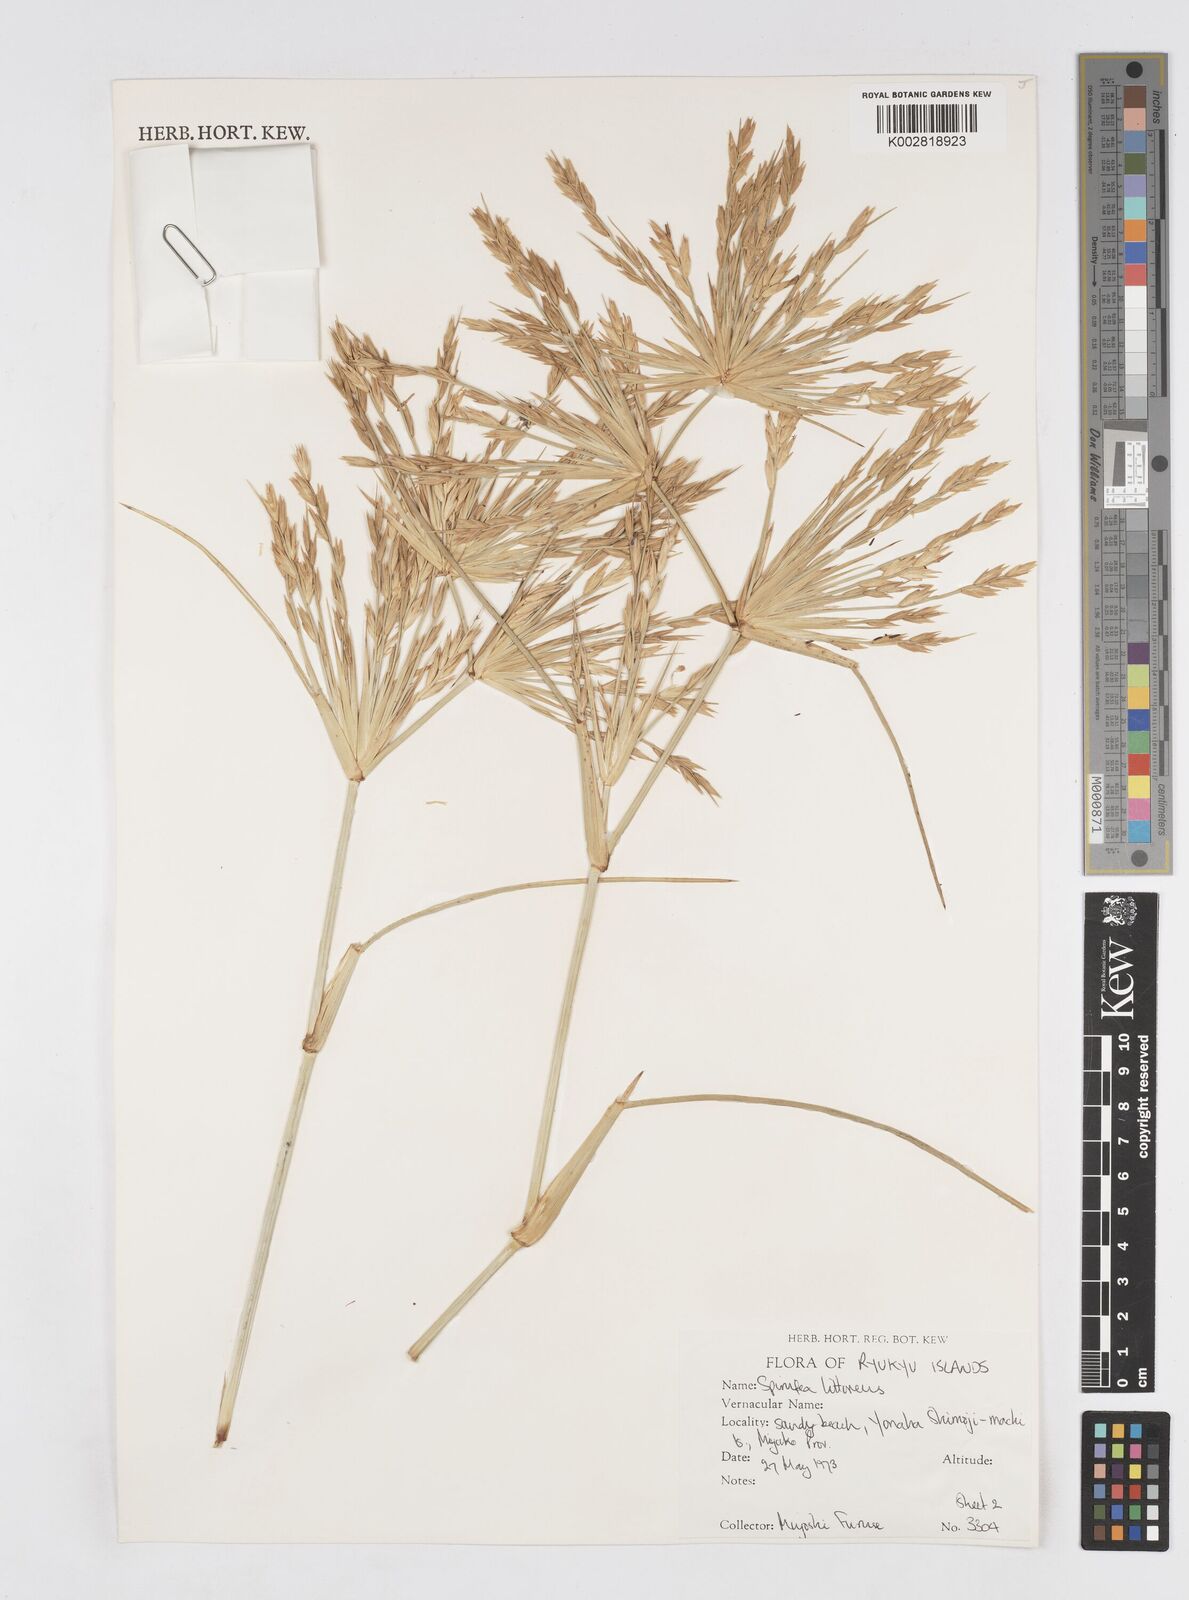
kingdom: Plantae
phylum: Tracheophyta
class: Liliopsida
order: Poales
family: Poaceae
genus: Spinifex
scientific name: Spinifex littoreus
